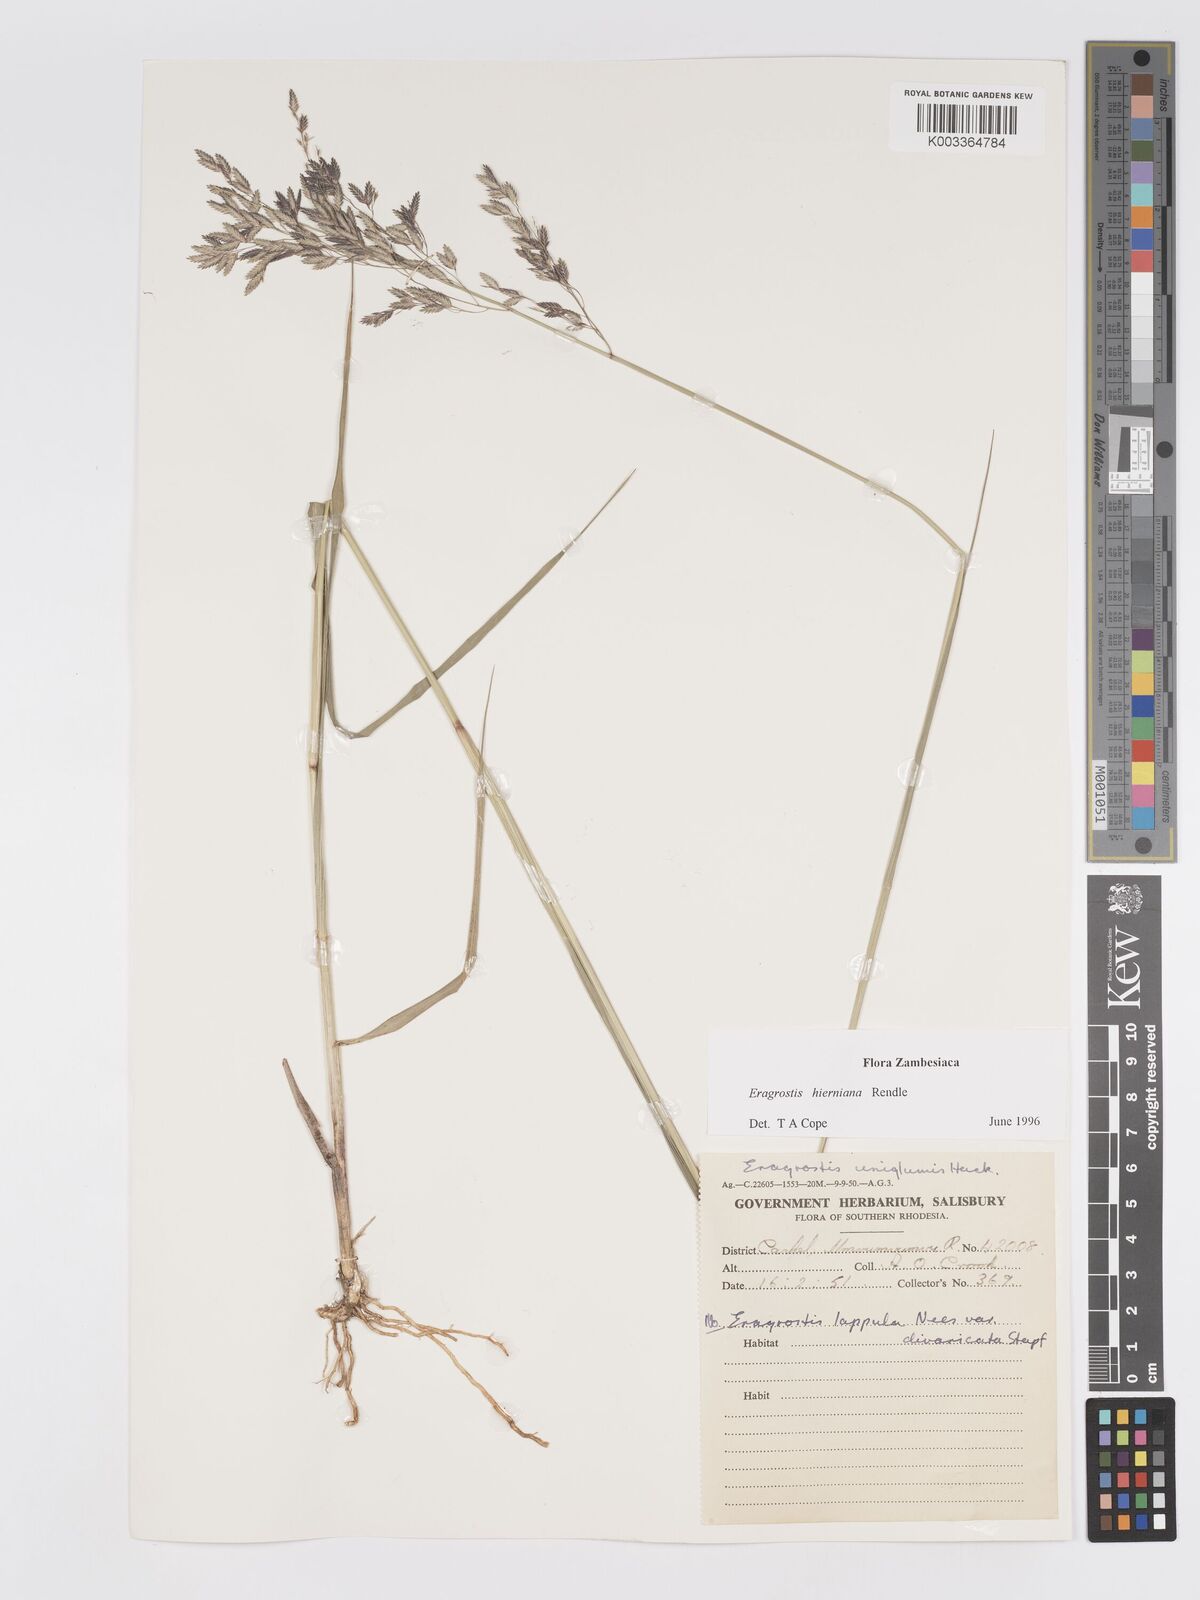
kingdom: Plantae
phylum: Tracheophyta
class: Liliopsida
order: Poales
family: Poaceae
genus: Eragrostis
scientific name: Eragrostis hierniana
